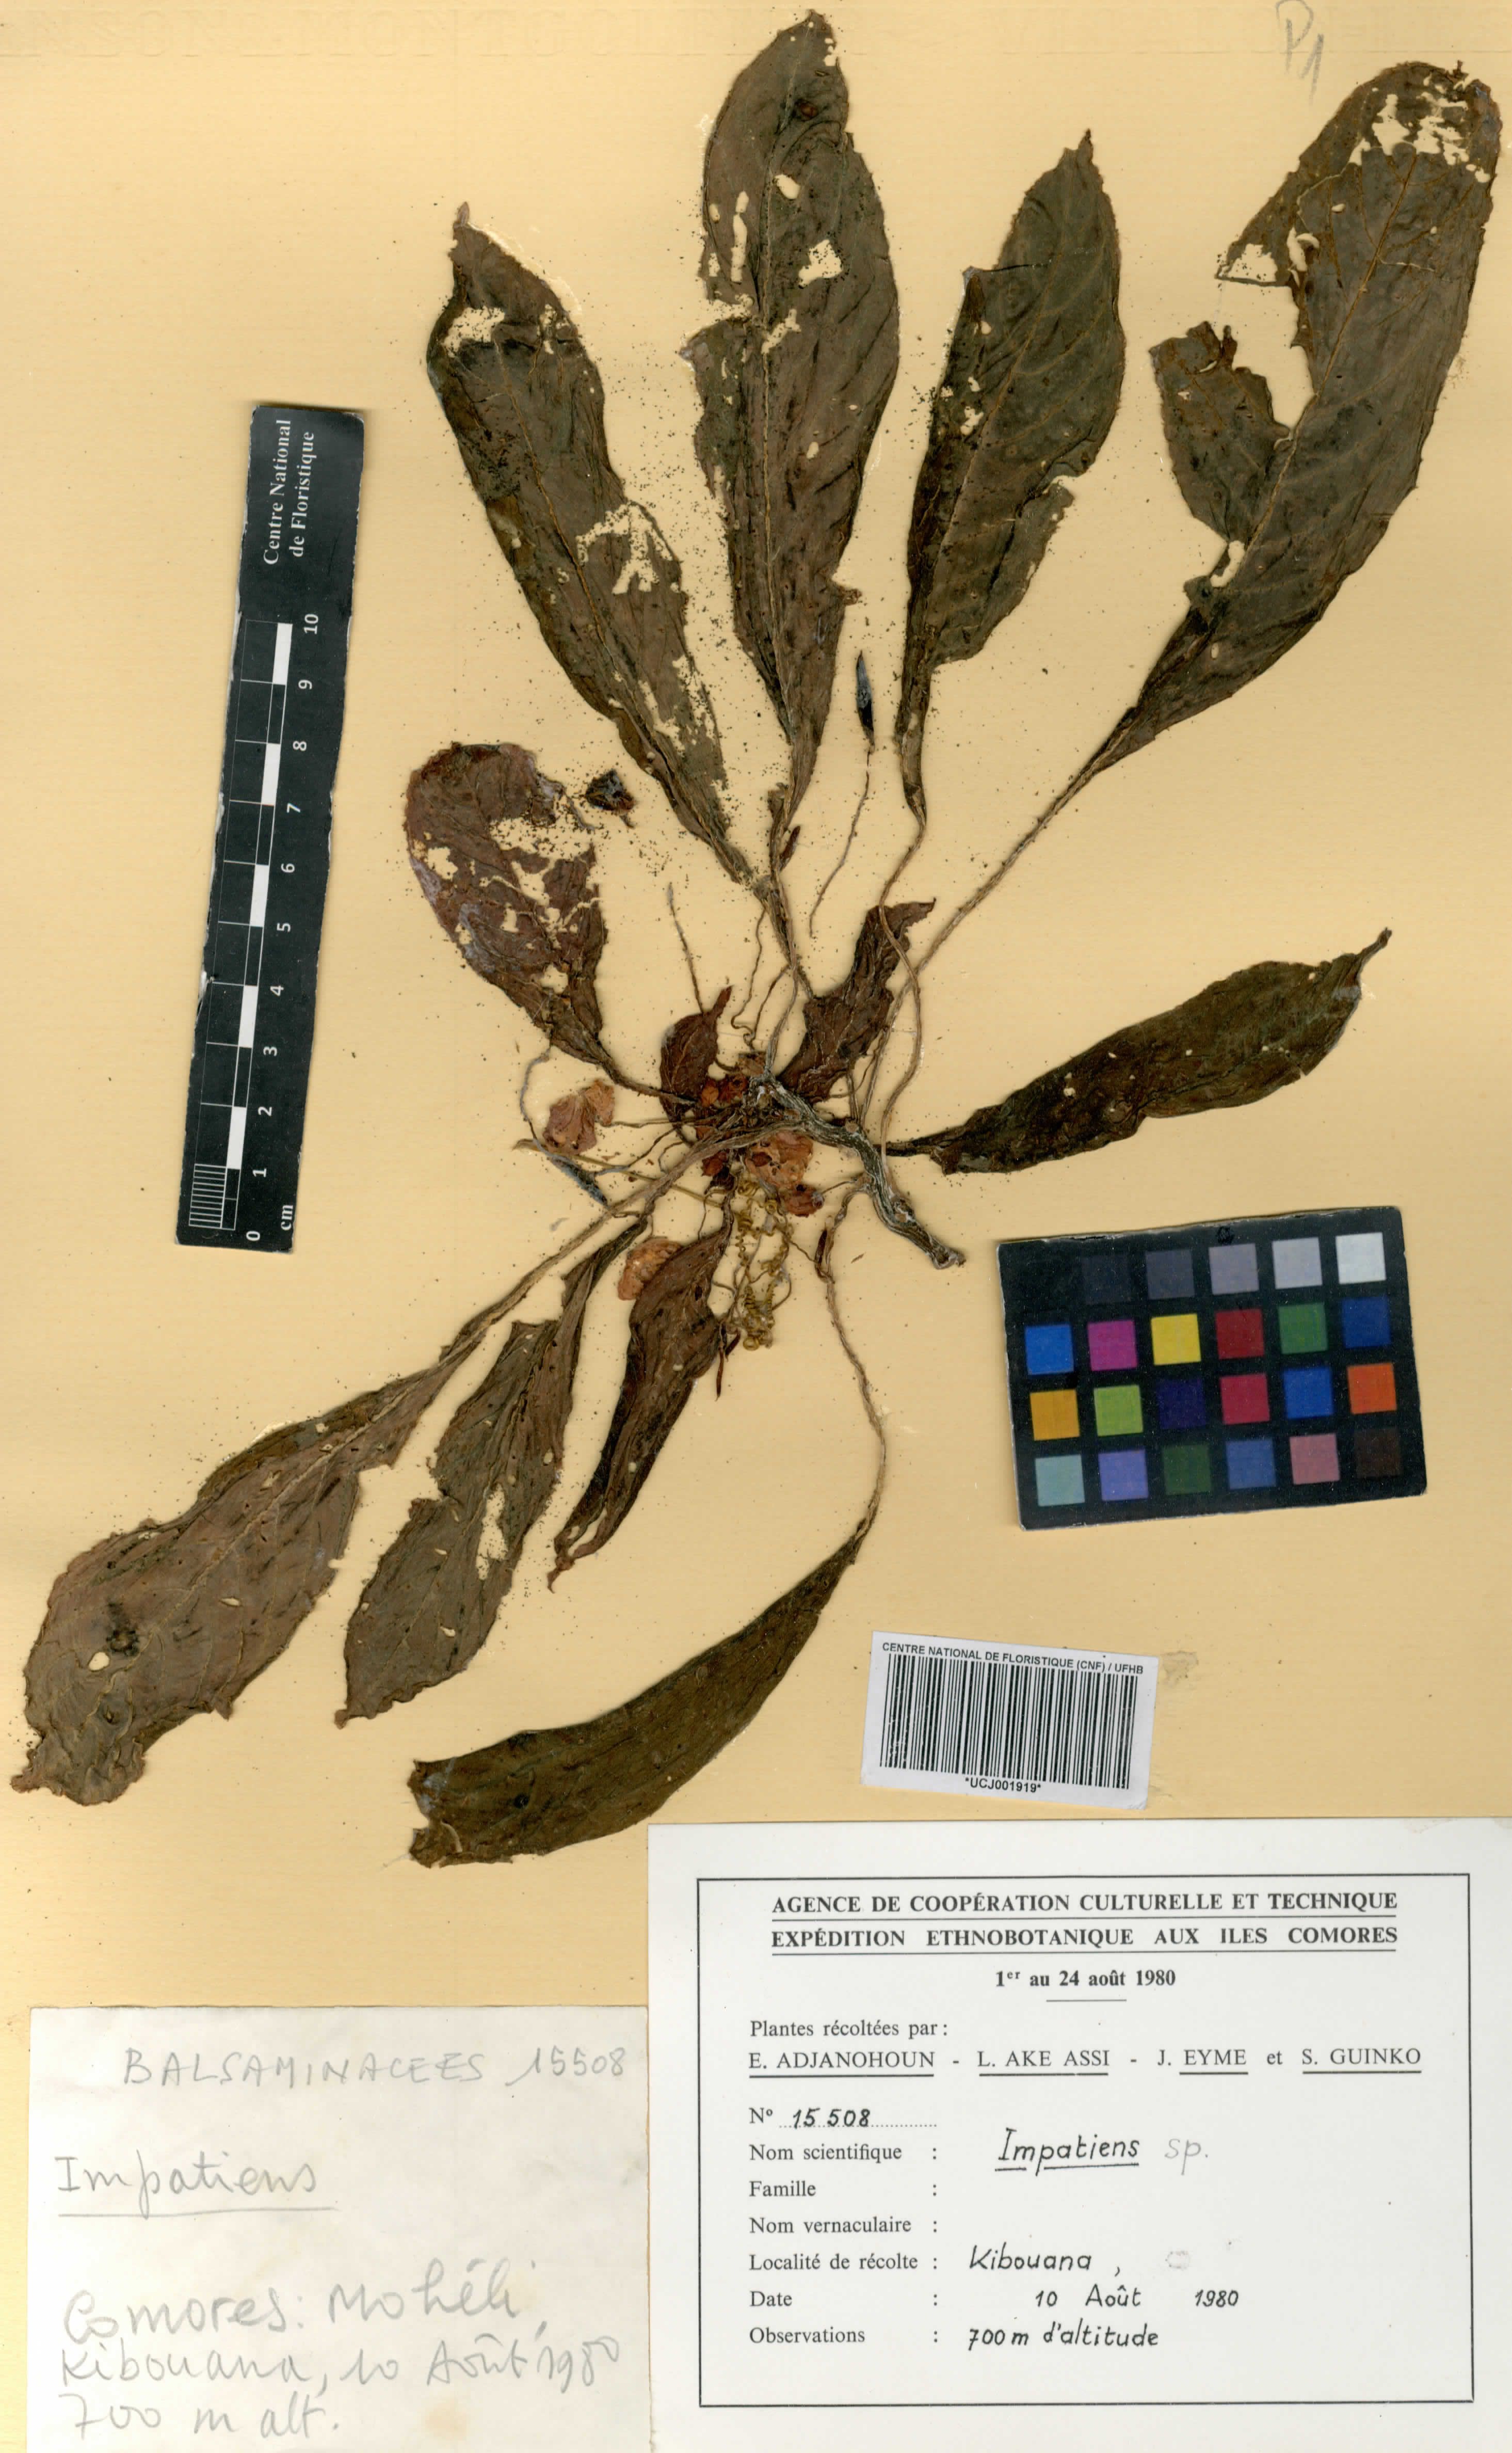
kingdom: Plantae
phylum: Tracheophyta
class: Magnoliopsida
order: Ericales
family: Balsaminaceae
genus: Impatiens
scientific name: Impatiens
